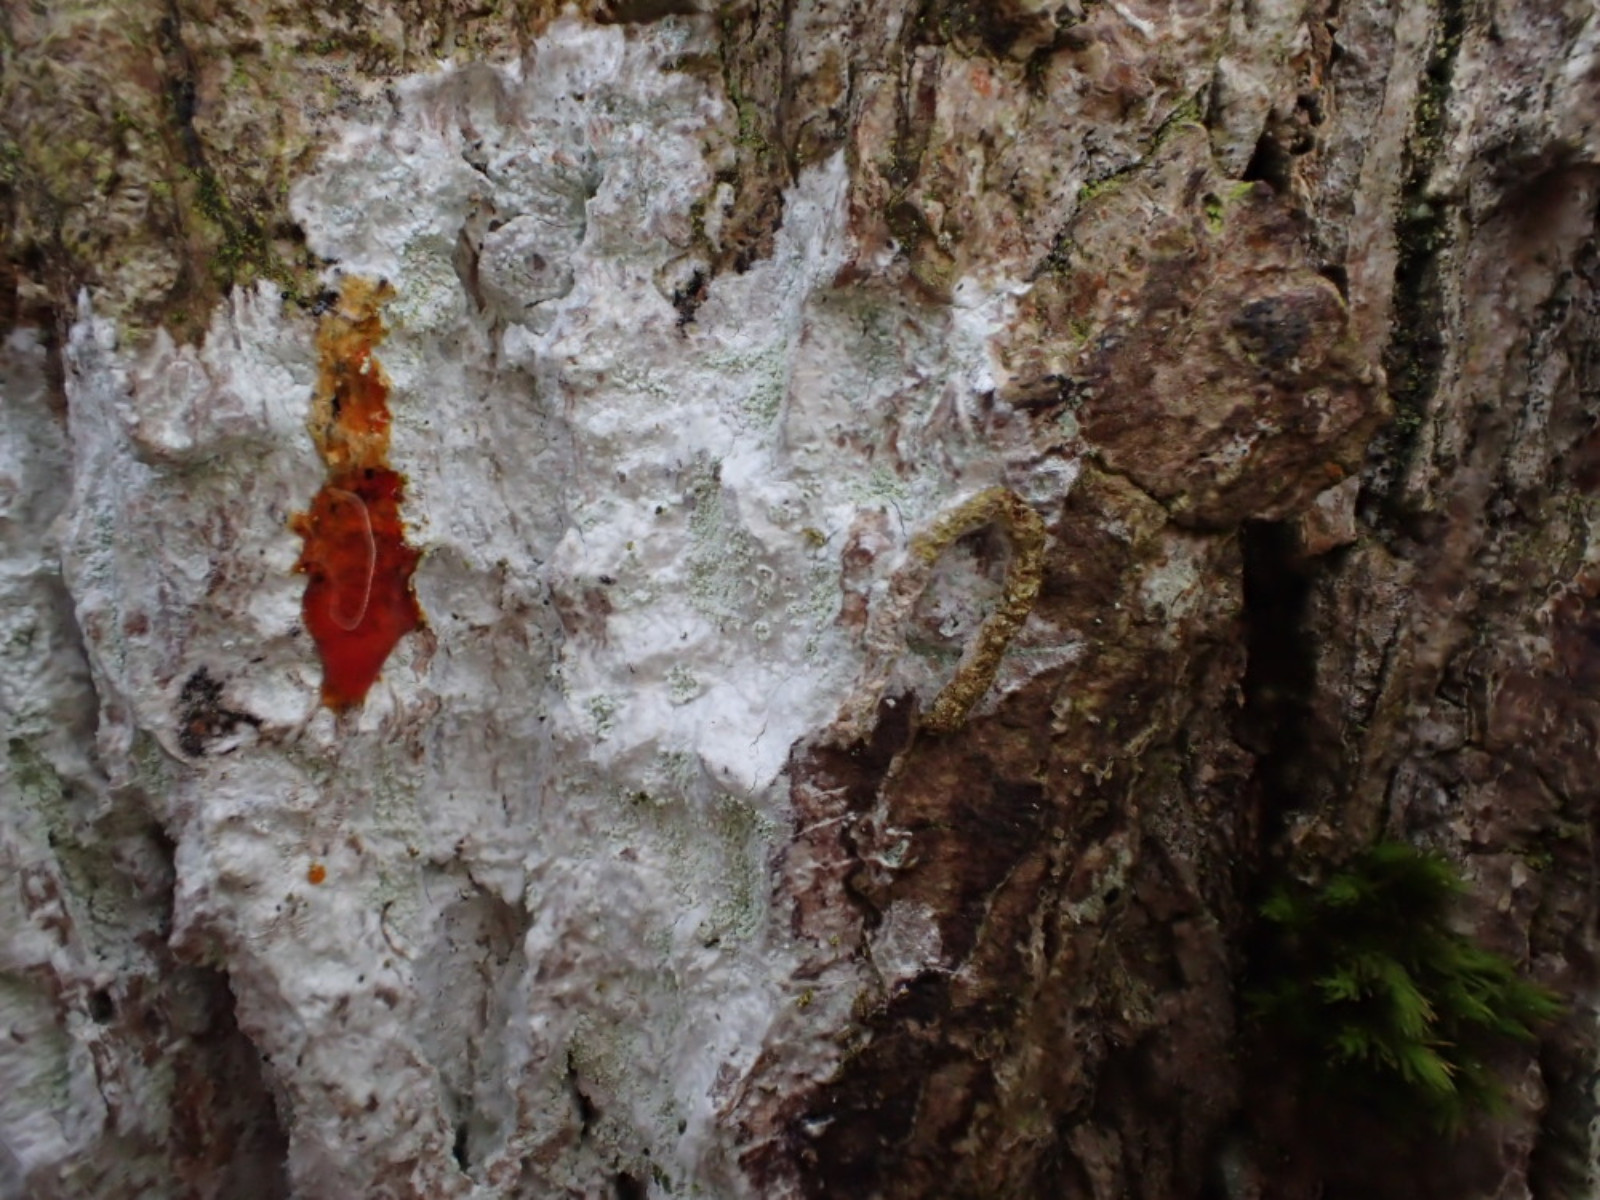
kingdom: Fungi
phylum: Ascomycota
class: Lecanoromycetes
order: Ostropales
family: Phlyctidaceae
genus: Phlyctis
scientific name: Phlyctis argena
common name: almindelig sølvlav
